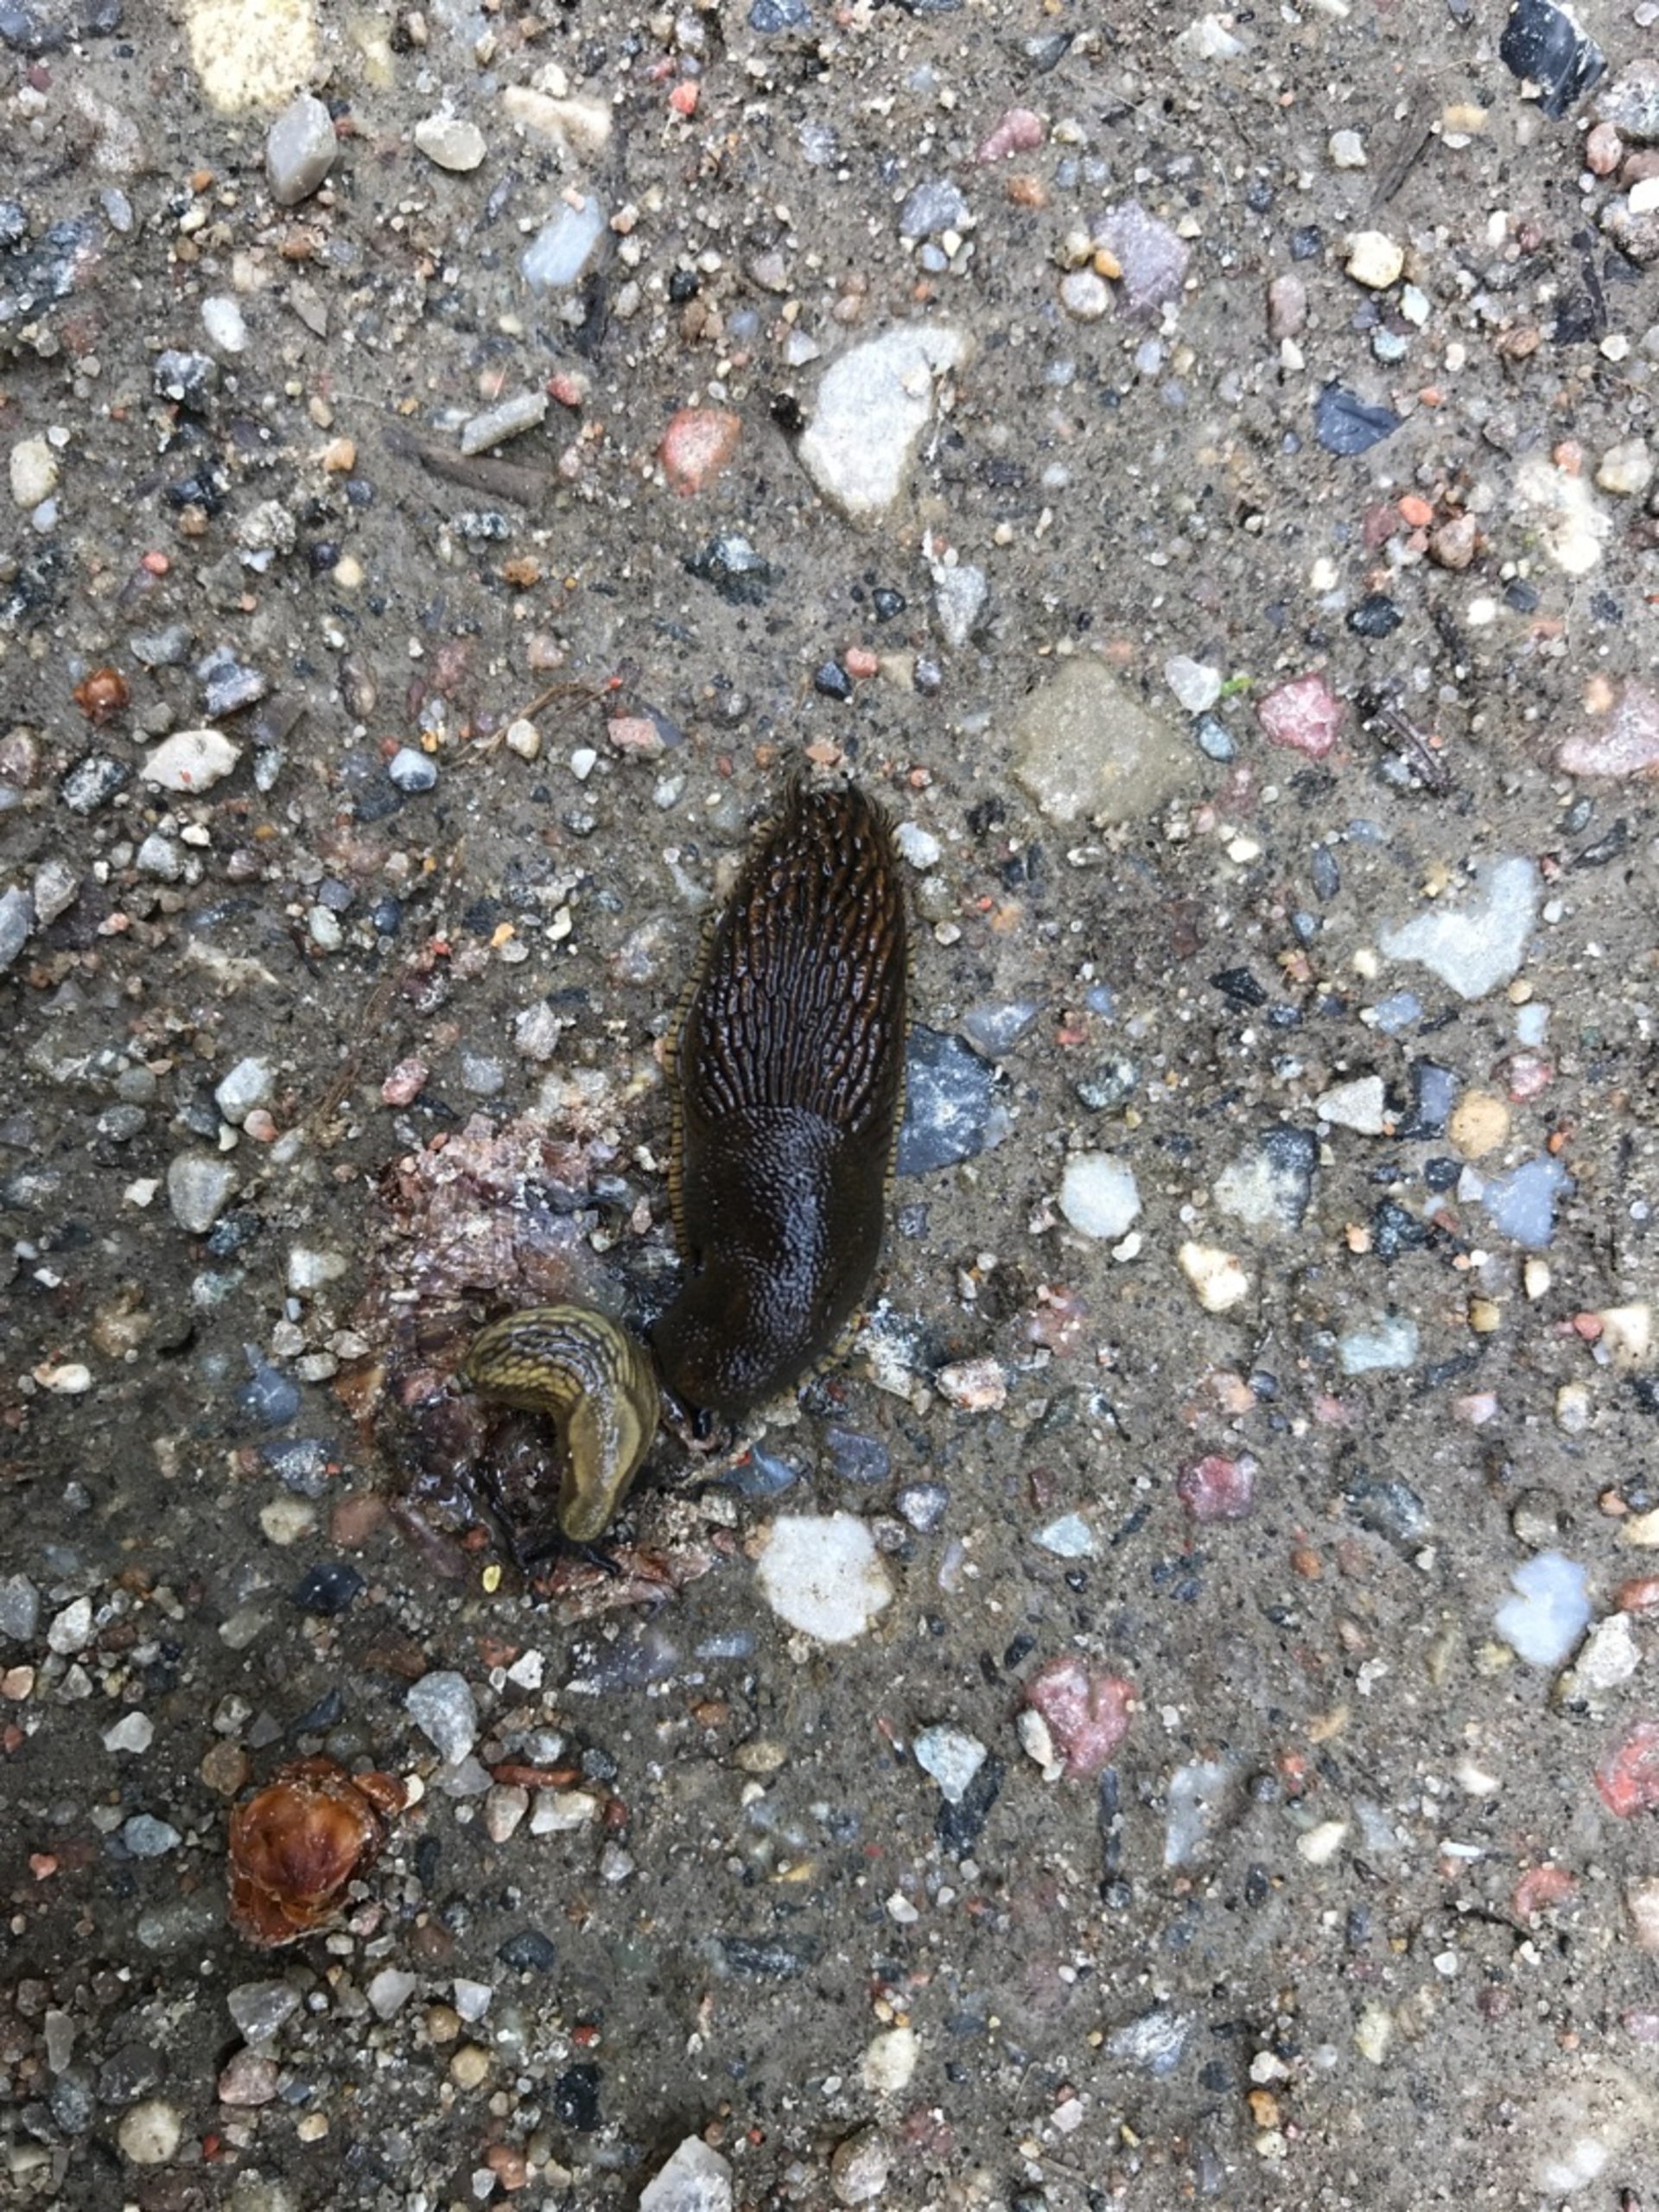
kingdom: Animalia
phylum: Mollusca
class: Gastropoda
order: Stylommatophora
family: Arionidae
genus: Arion
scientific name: Arion vulgaris
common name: Iberisk skovsnegl
